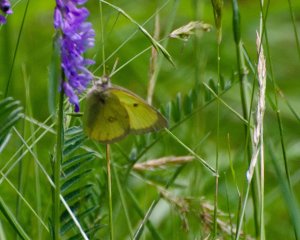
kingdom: Animalia
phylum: Arthropoda
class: Insecta
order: Lepidoptera
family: Pieridae
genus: Colias
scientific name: Colias philodice
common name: Clouded Sulphur
